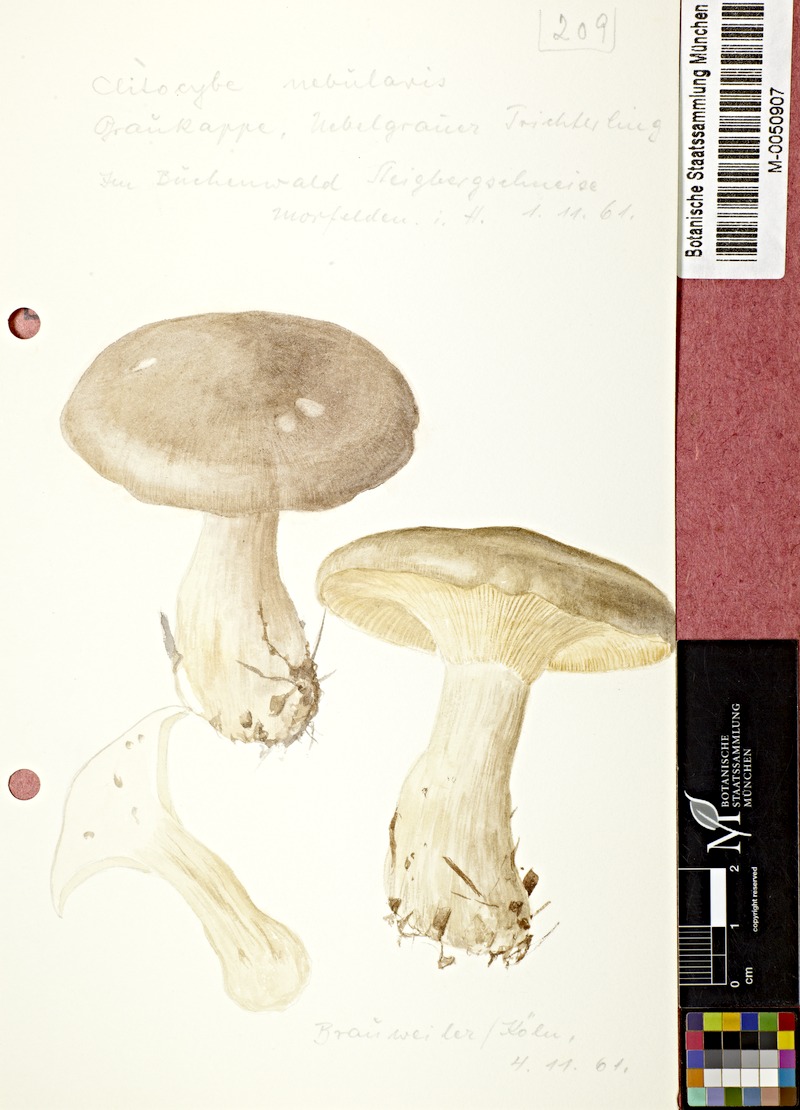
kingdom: Fungi
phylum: Basidiomycota
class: Agaricomycetes
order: Agaricales
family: Tricholomataceae
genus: Clitocybe
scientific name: Clitocybe nebularis
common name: Clouded agaric
